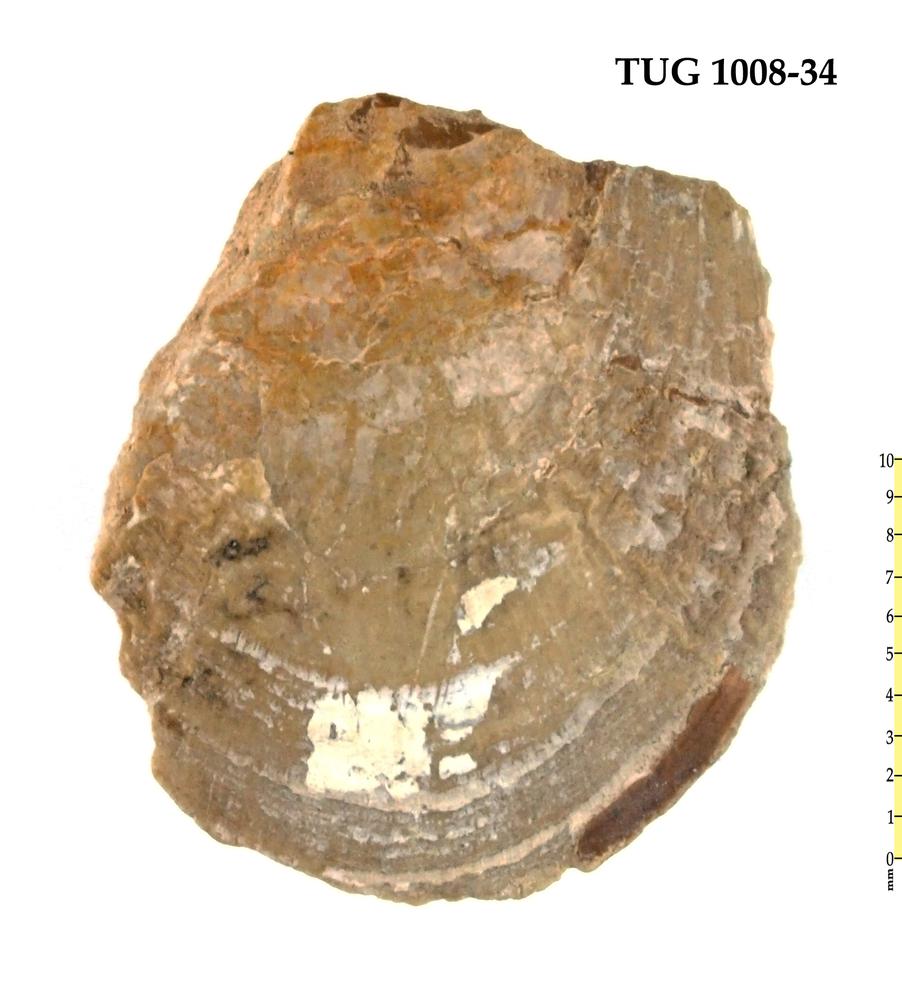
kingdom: Animalia
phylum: Brachiopoda
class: Lingulata
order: Lingulida
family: Pseudolingulidae
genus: Pseudolingula
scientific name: Pseudolingula Crania quadrata
